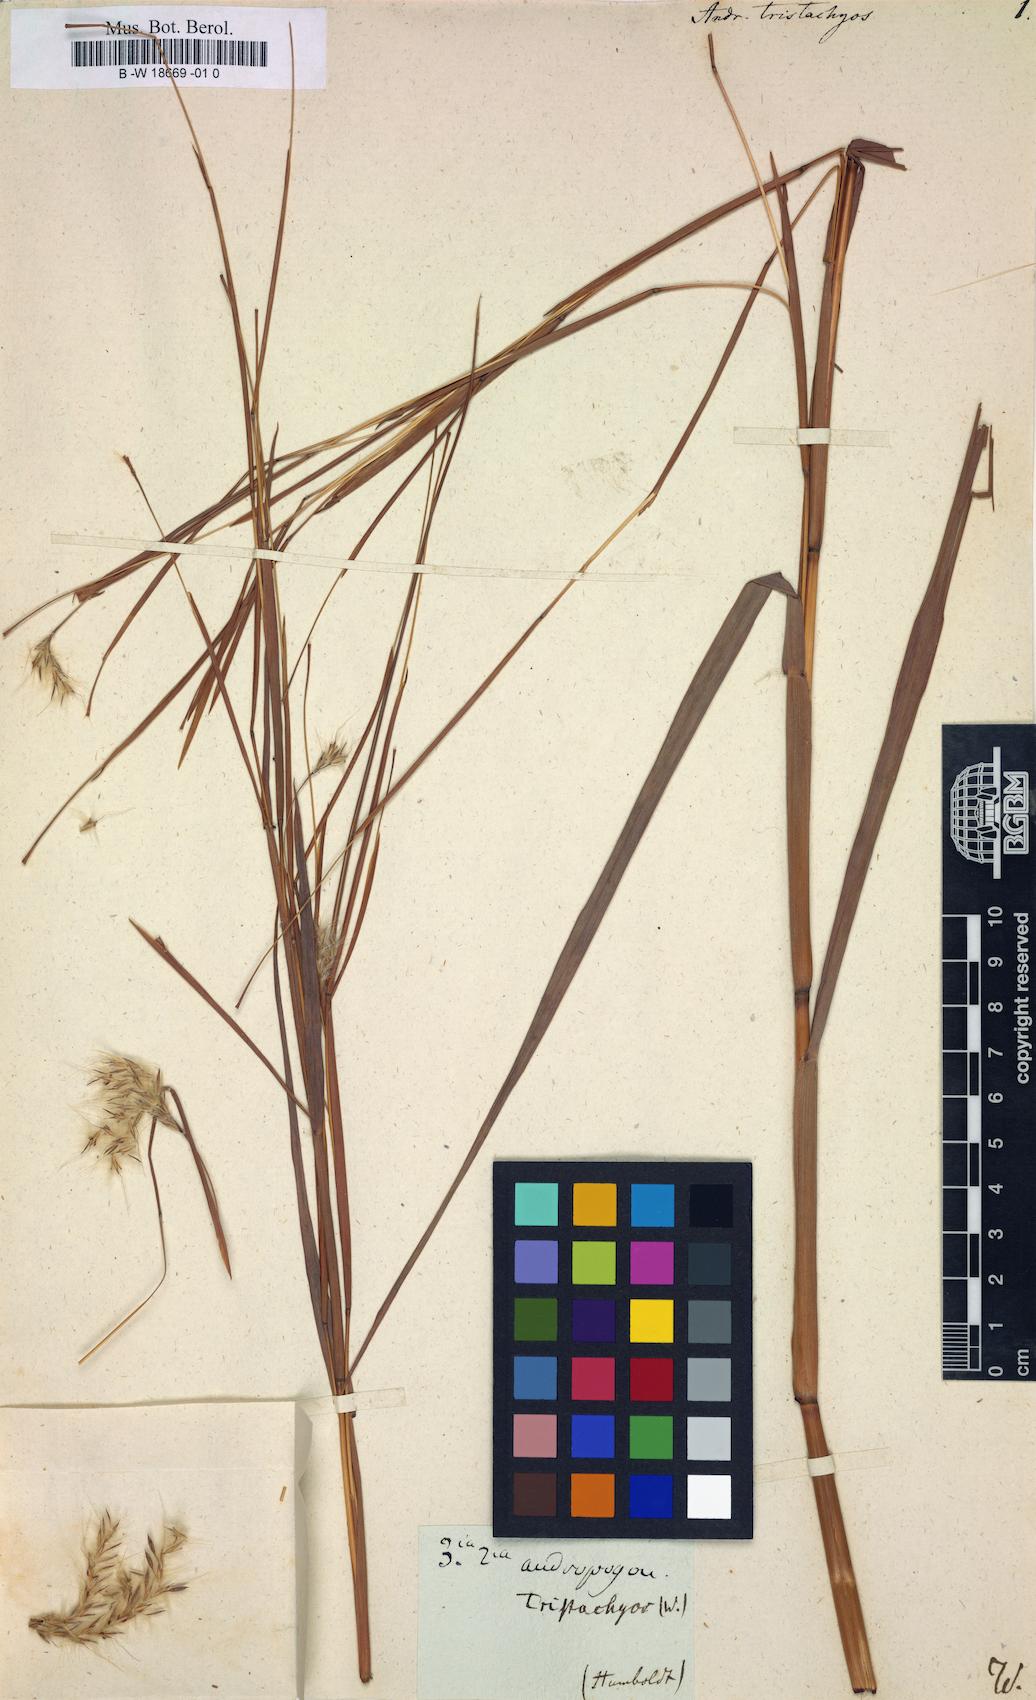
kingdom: Plantae
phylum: Tracheophyta
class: Liliopsida
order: Poales
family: Poaceae
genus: Pseudopogonatherum
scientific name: Pseudopogonatherum trispicatum
